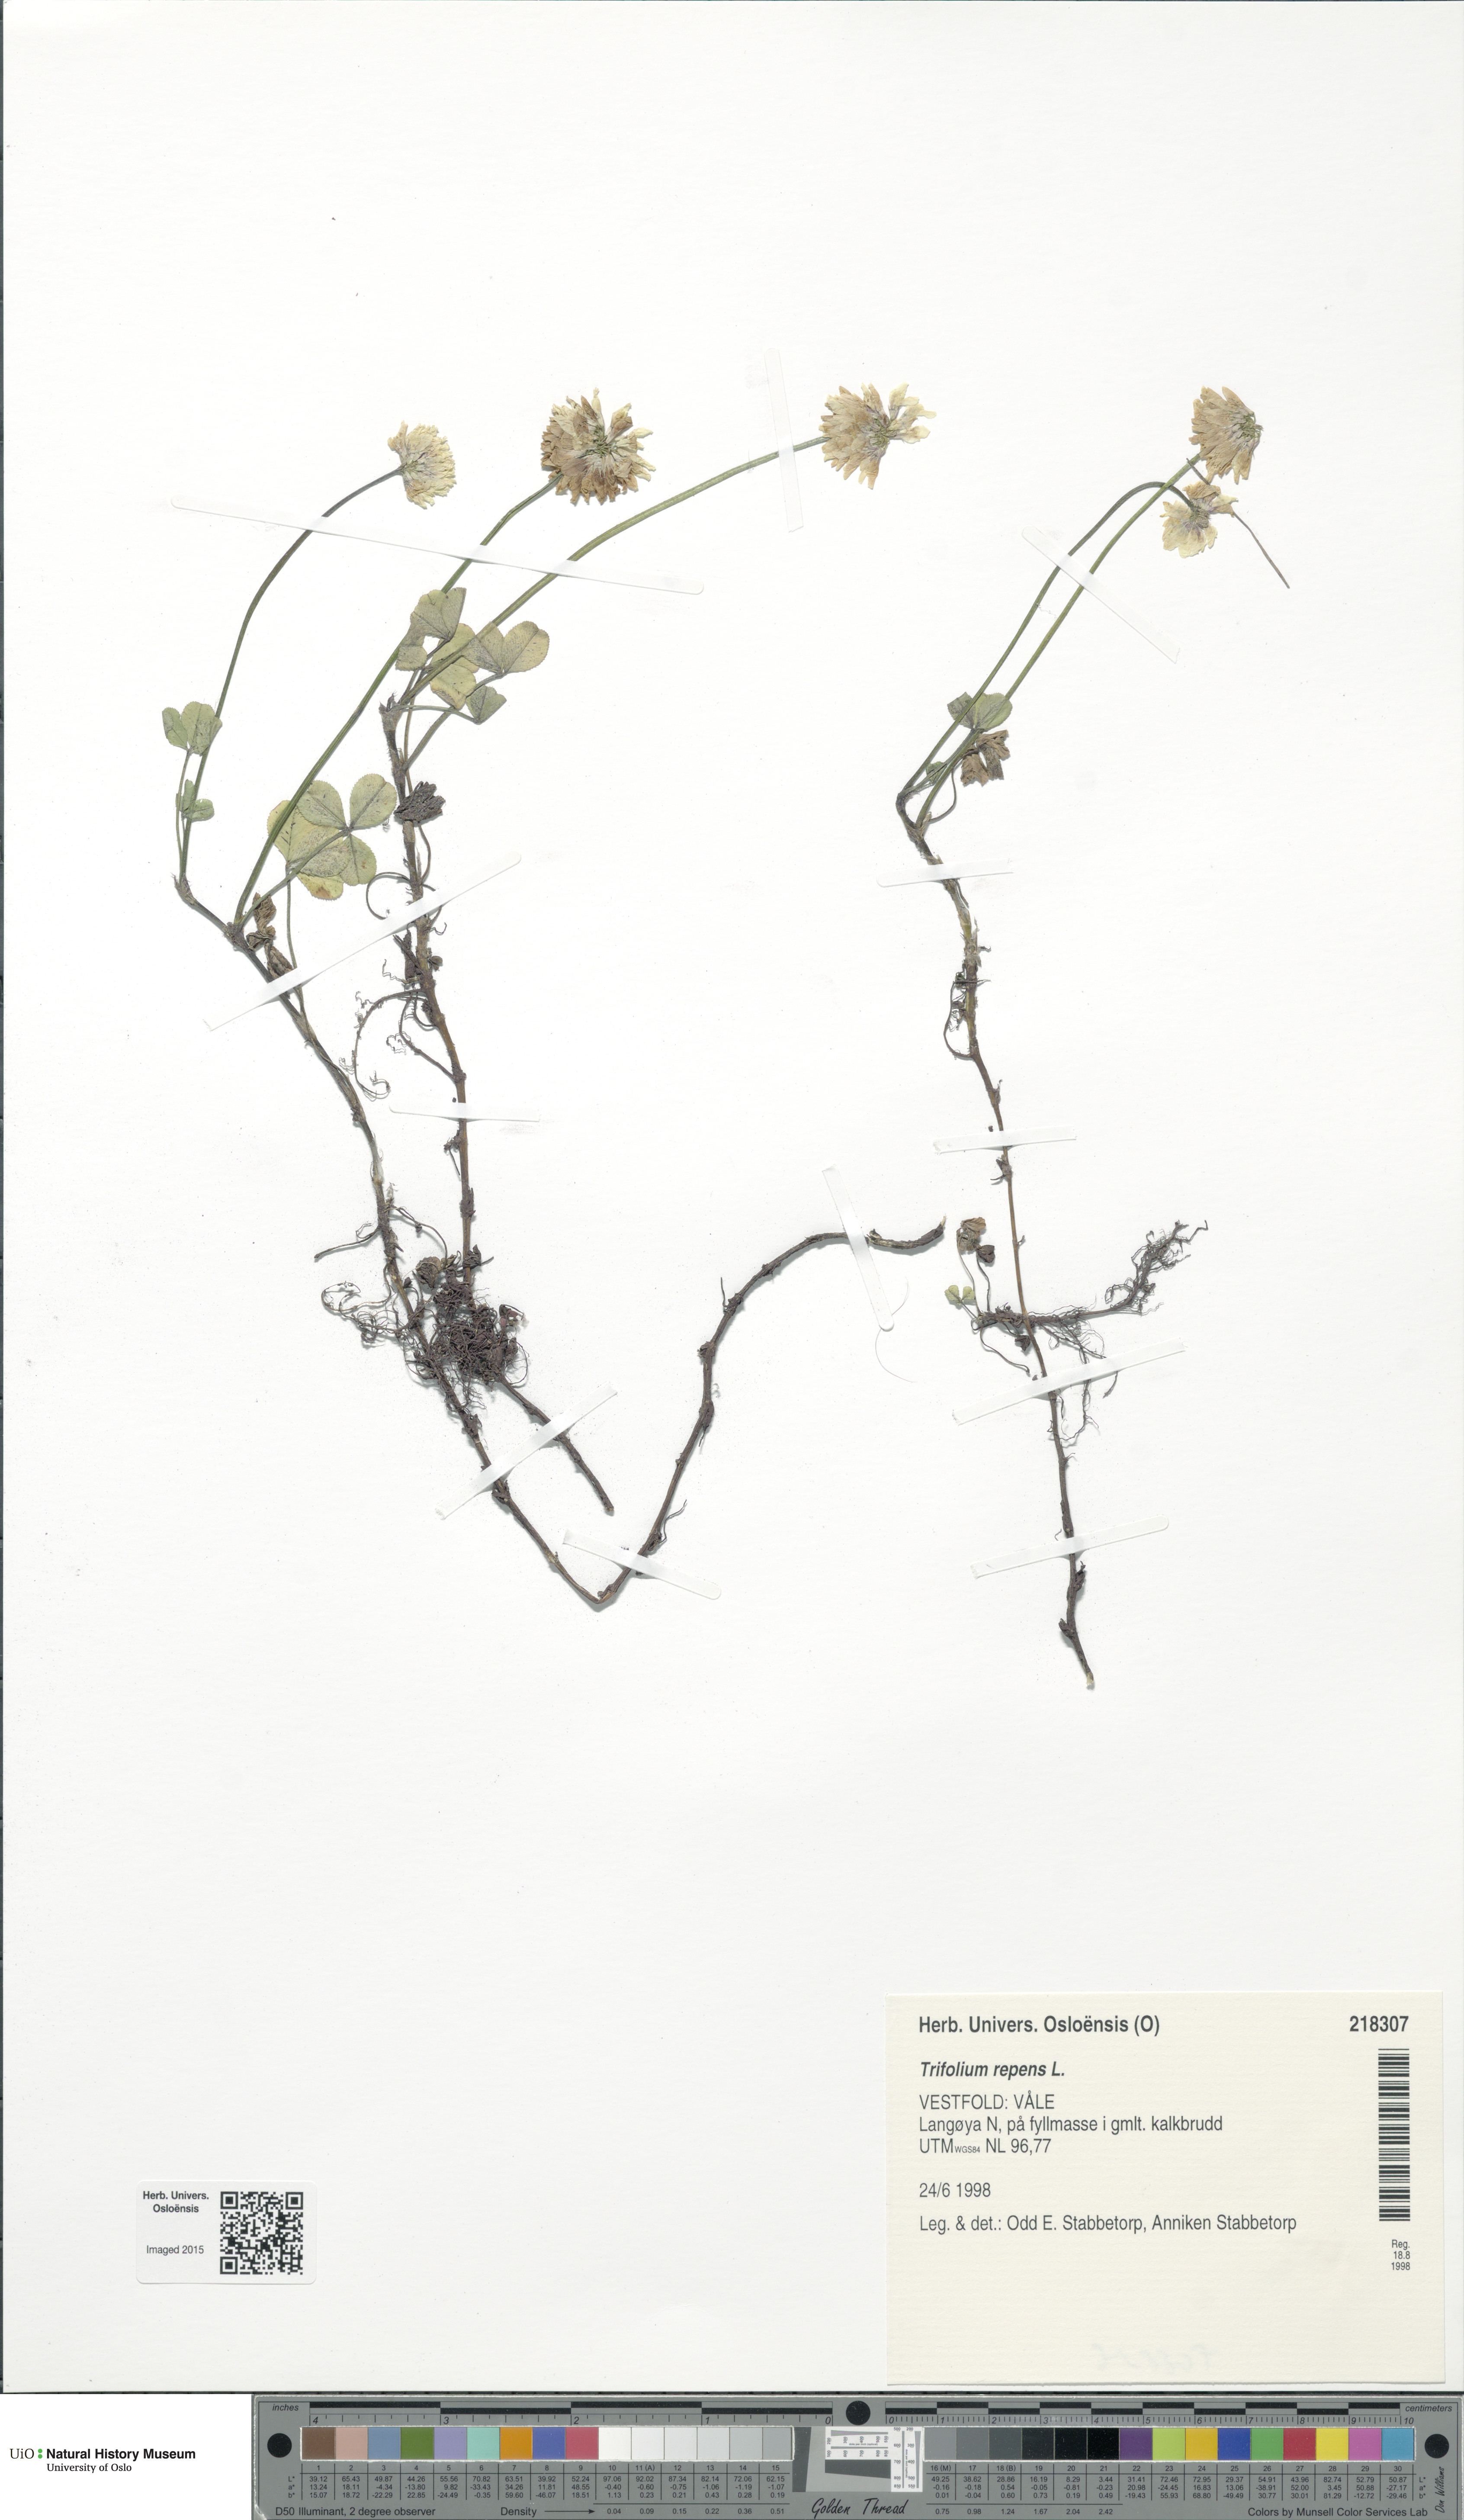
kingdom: Plantae
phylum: Tracheophyta
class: Magnoliopsida
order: Fabales
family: Fabaceae
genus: Trifolium
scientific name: Trifolium repens
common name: White clover
